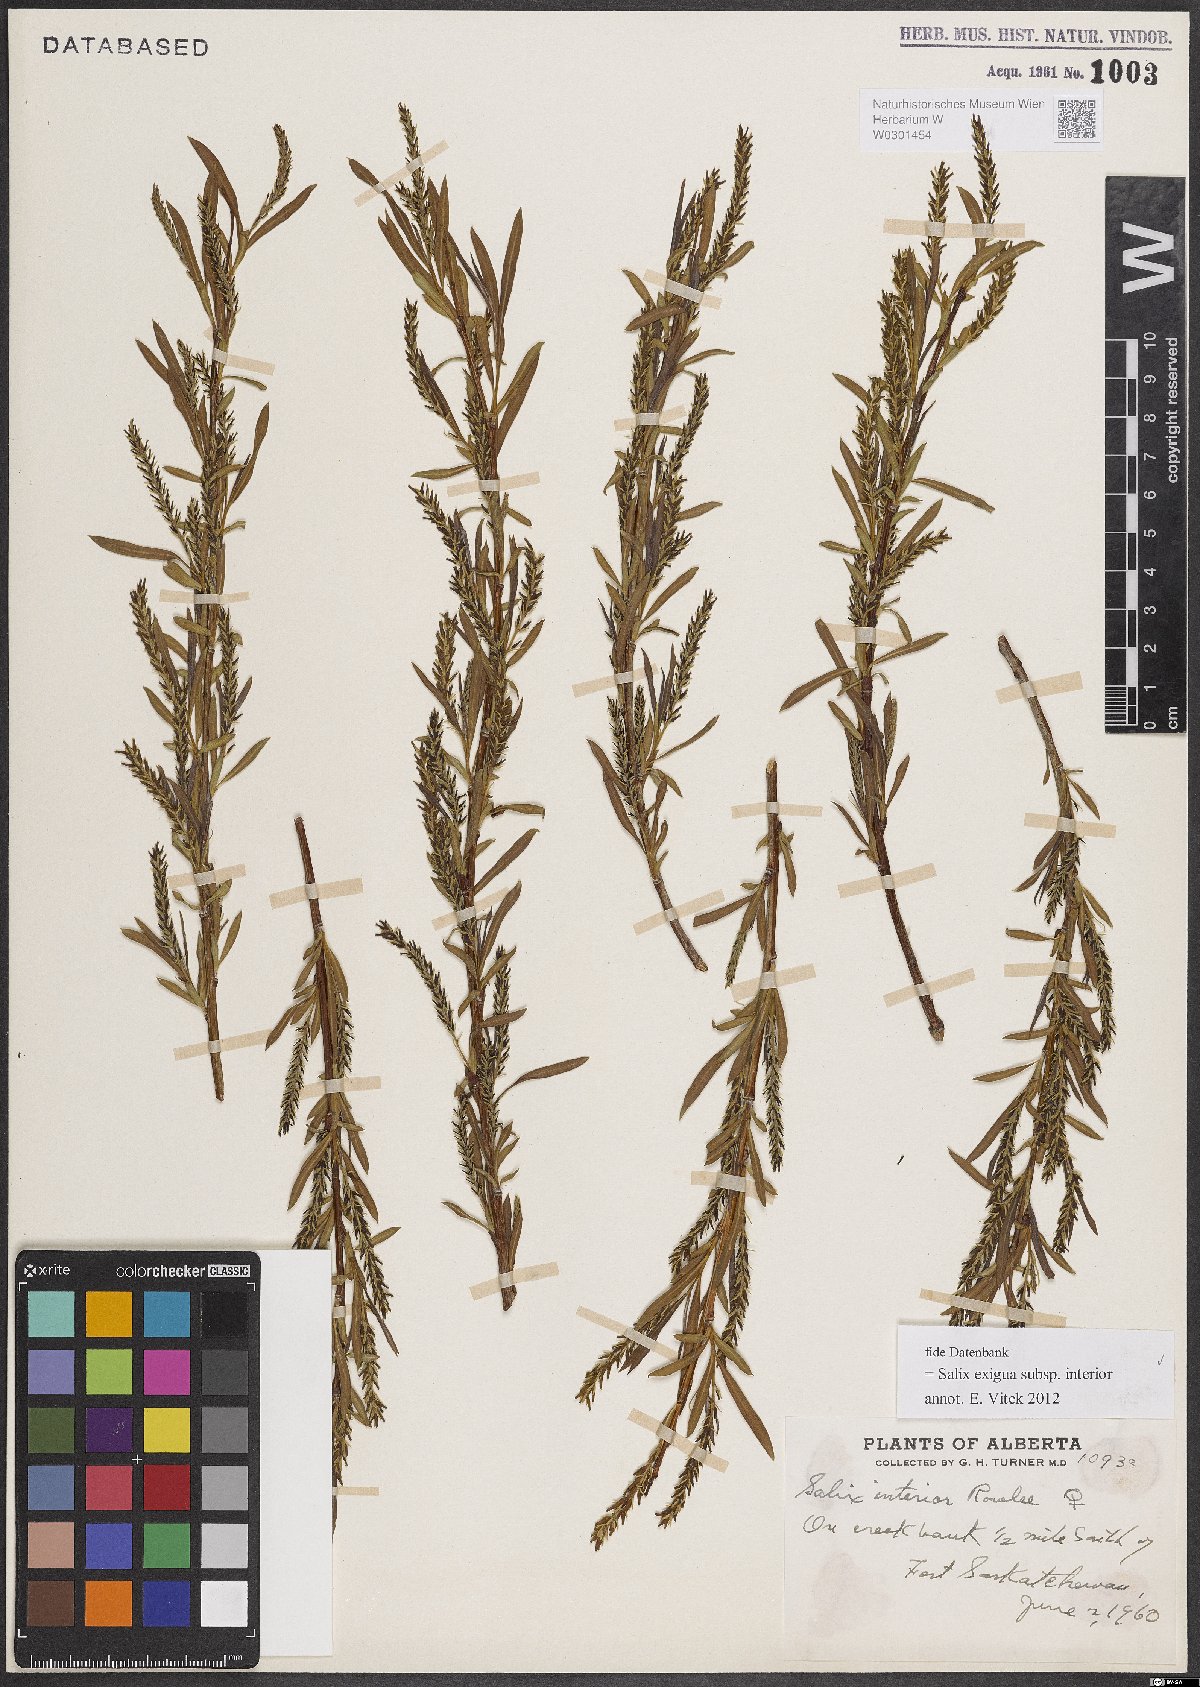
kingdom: Plantae
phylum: Tracheophyta
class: Magnoliopsida
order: Malpighiales
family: Salicaceae
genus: Salix
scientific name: Salix interior
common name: Sandbar willow
